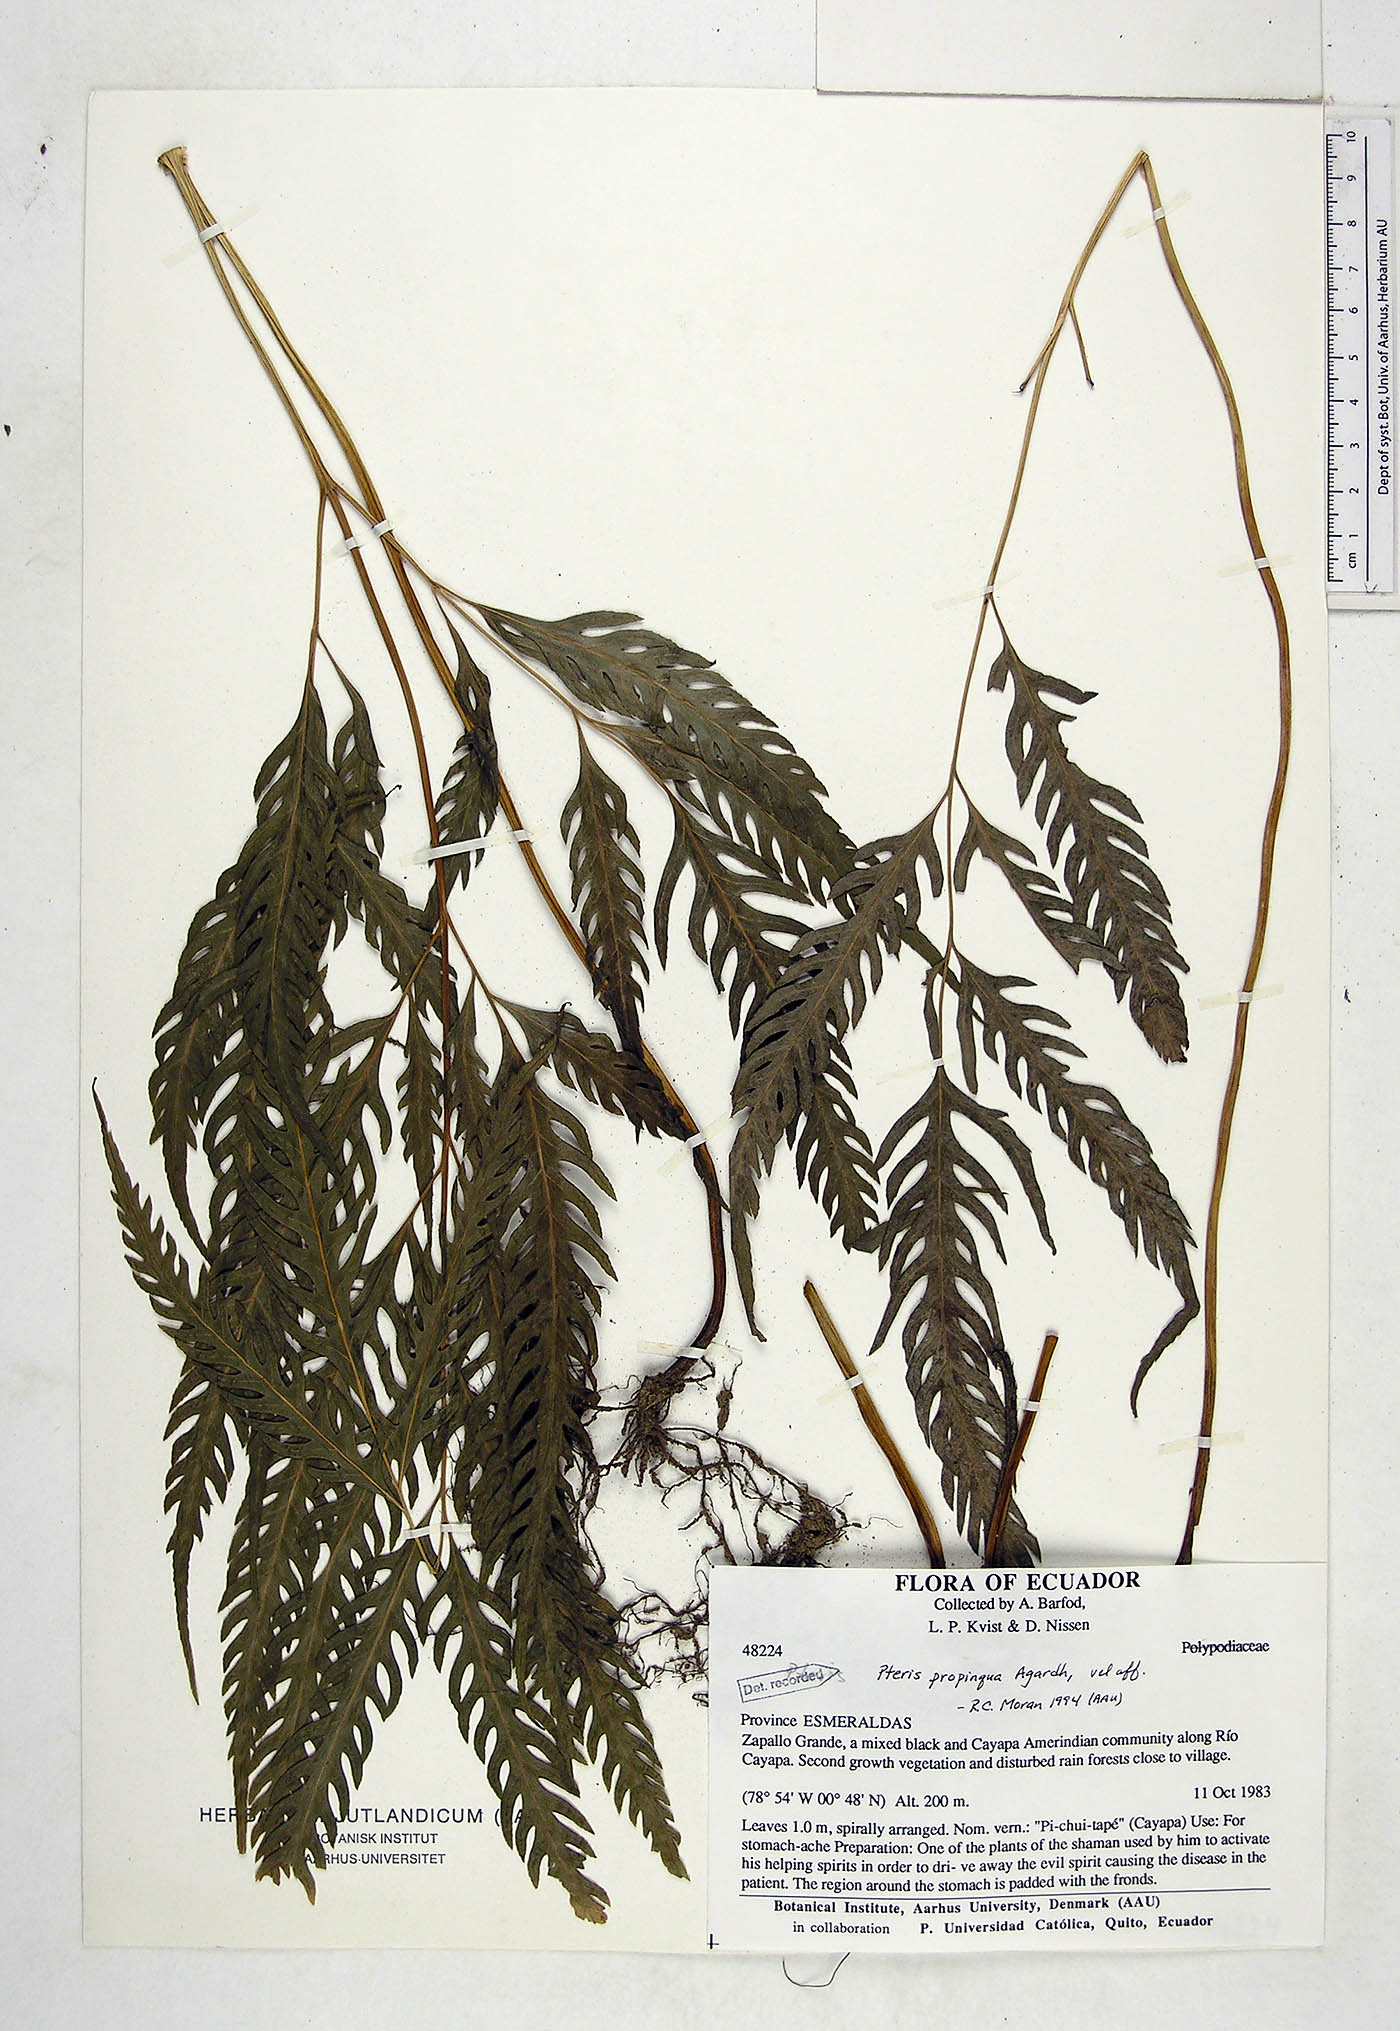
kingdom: Plantae
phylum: Tracheophyta
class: Polypodiopsida
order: Polypodiales
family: Pteridaceae
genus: Pteris
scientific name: Pteris propinqua
